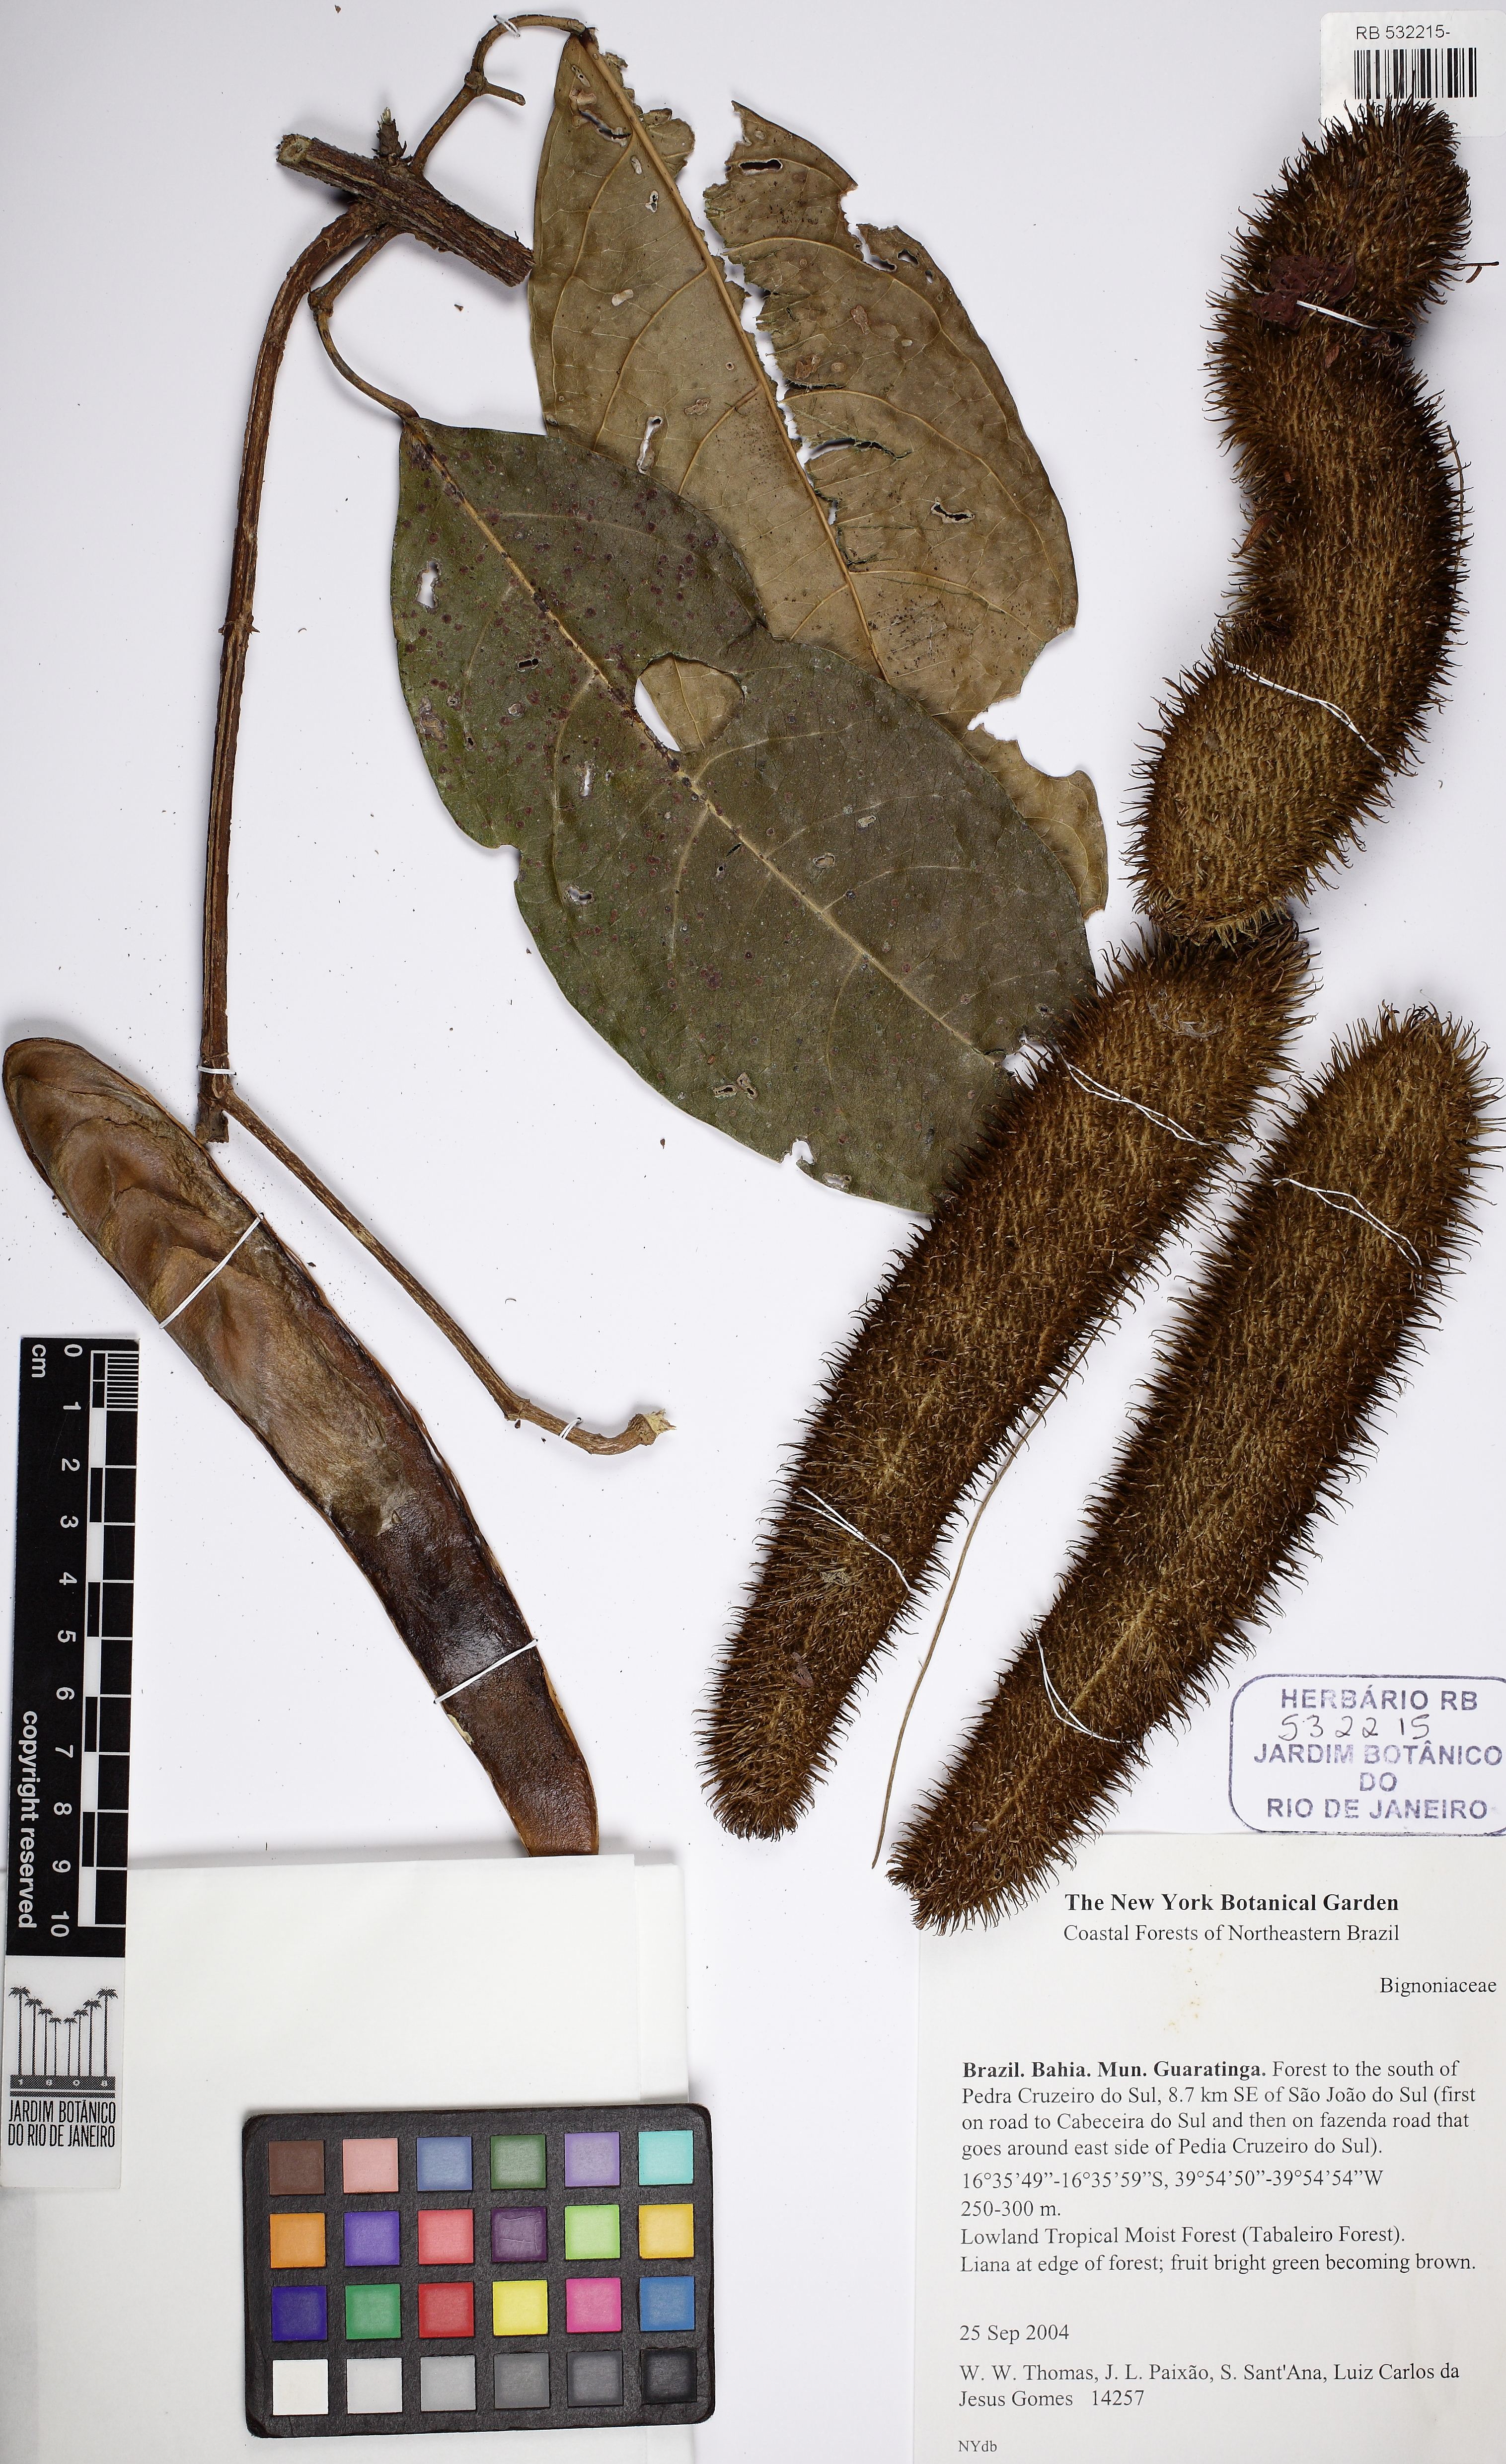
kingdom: Plantae
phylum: Tracheophyta
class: Magnoliopsida
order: Lamiales
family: Bignoniaceae
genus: Bignonia
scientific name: Bignonia
